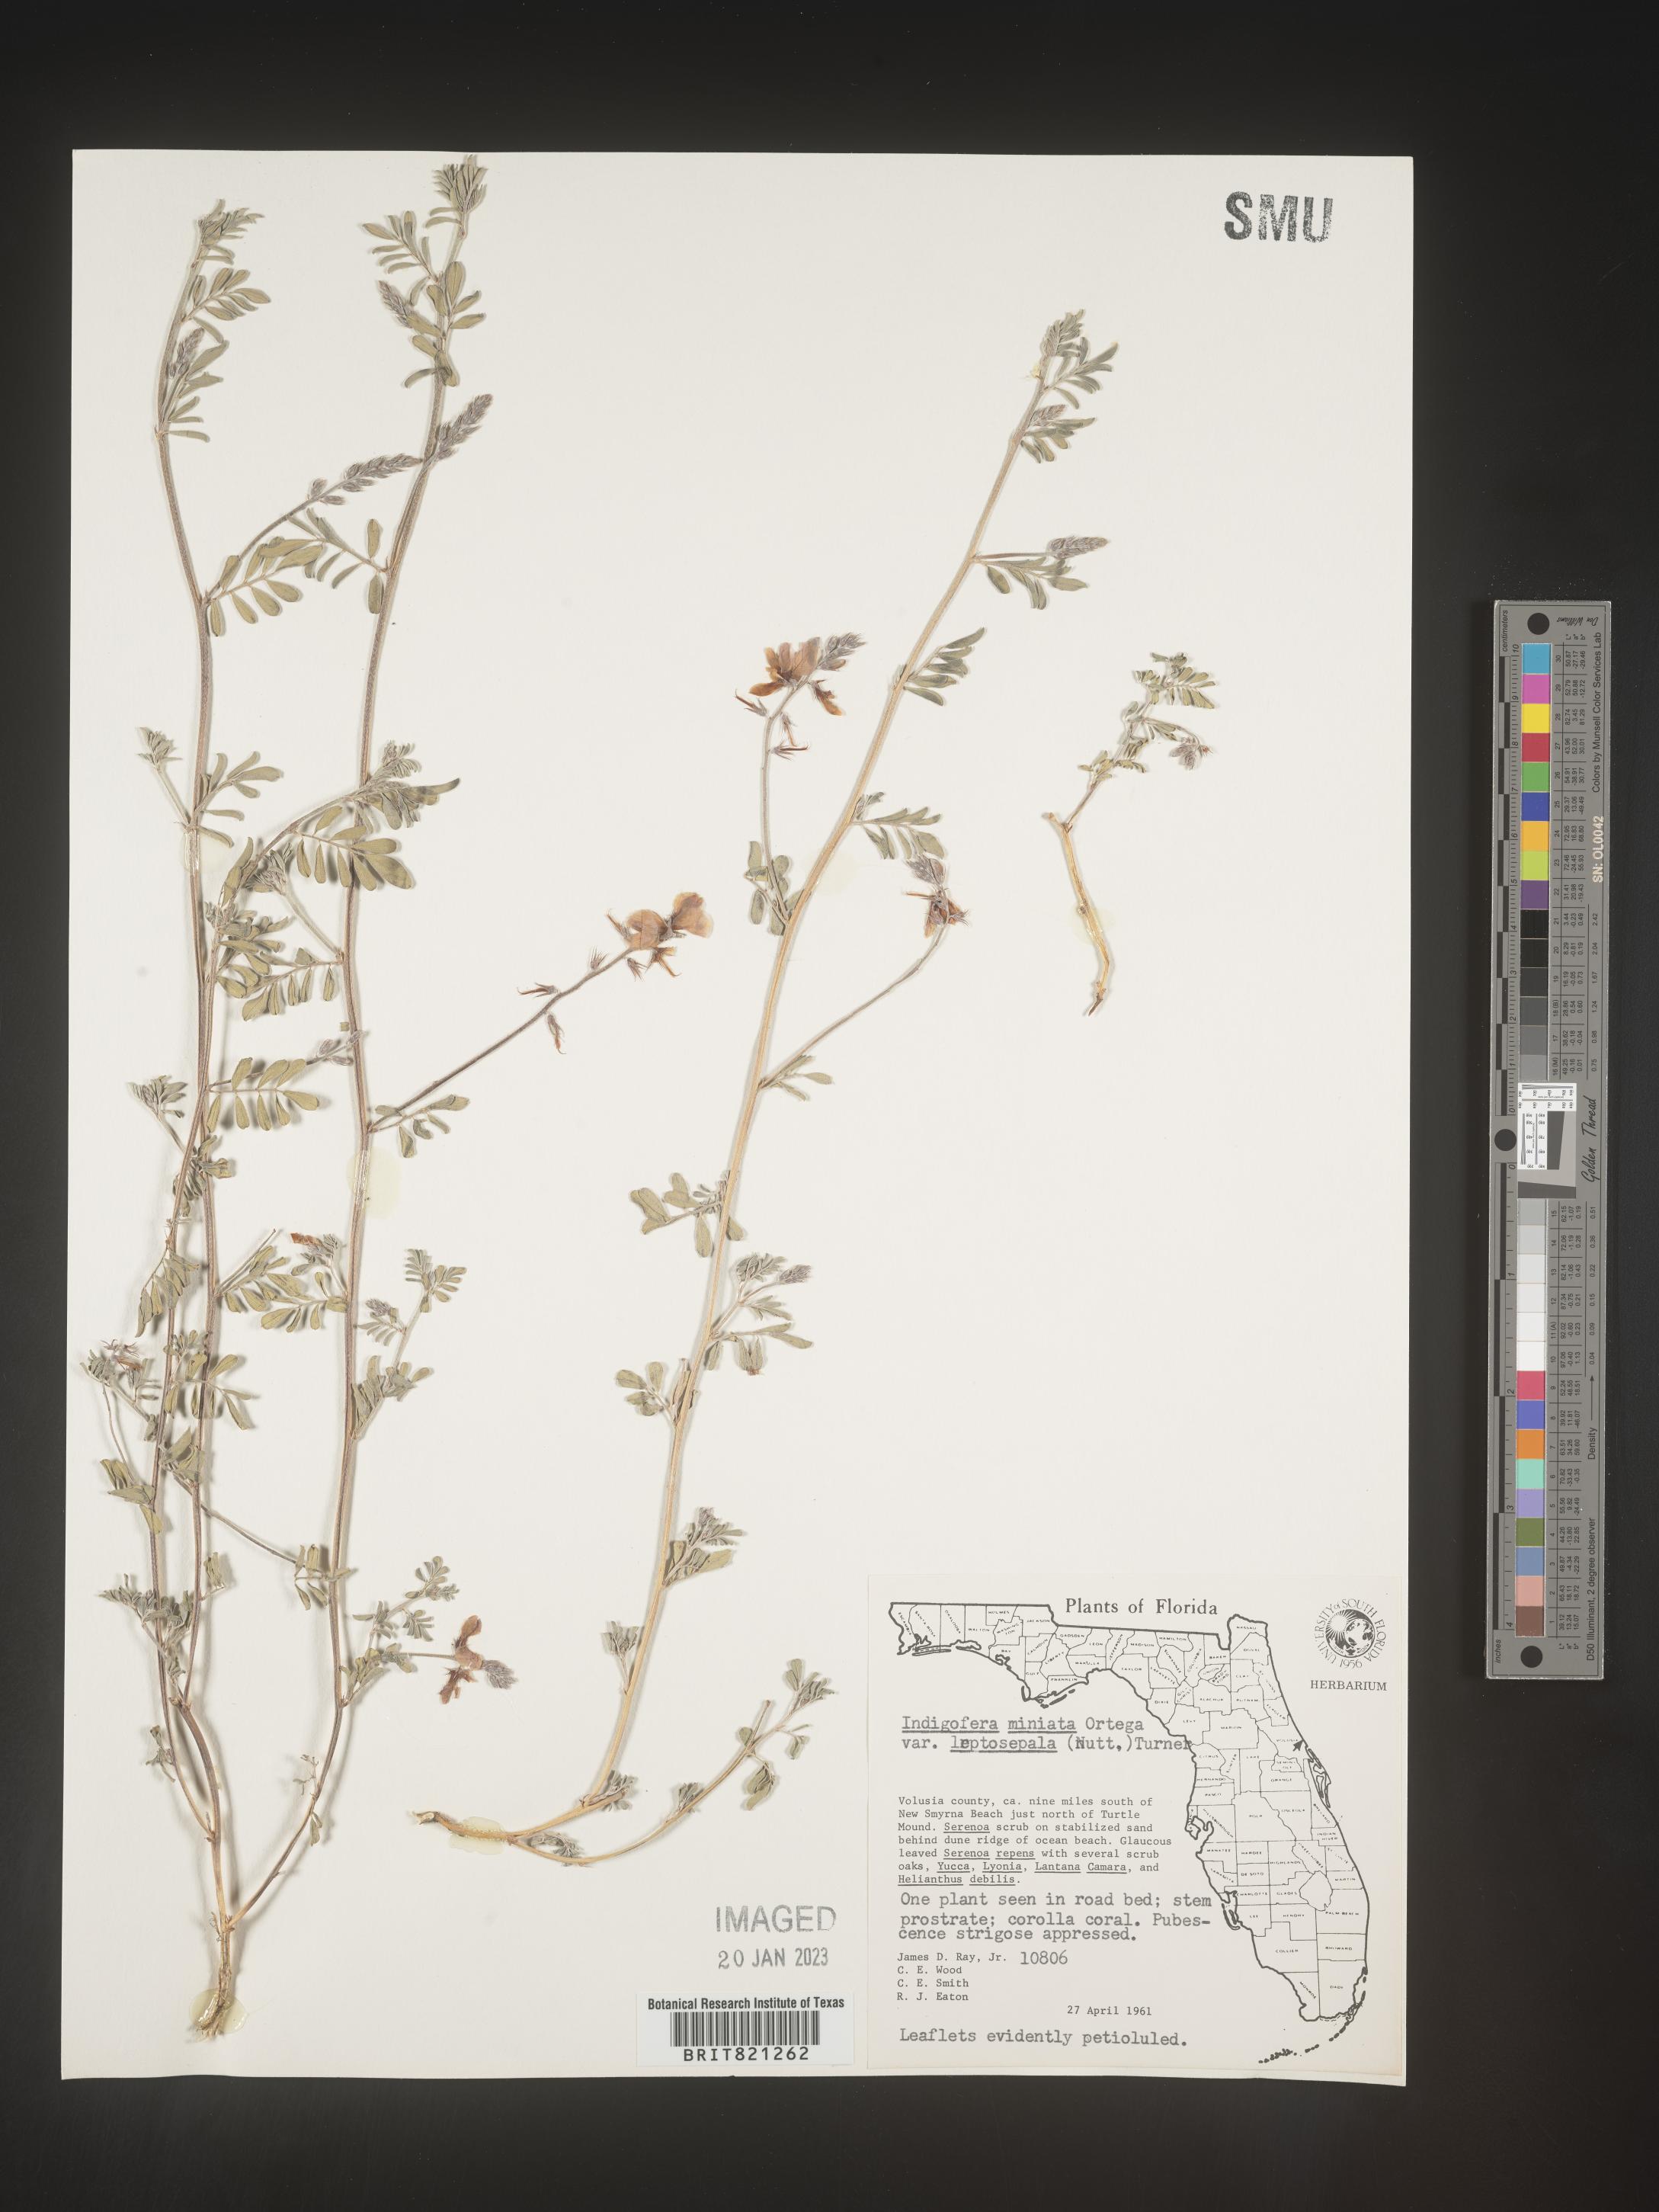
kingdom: Plantae
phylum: Tracheophyta
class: Magnoliopsida
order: Fabales
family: Fabaceae
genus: Indigofera
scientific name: Indigofera miniata
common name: Coast indigo
